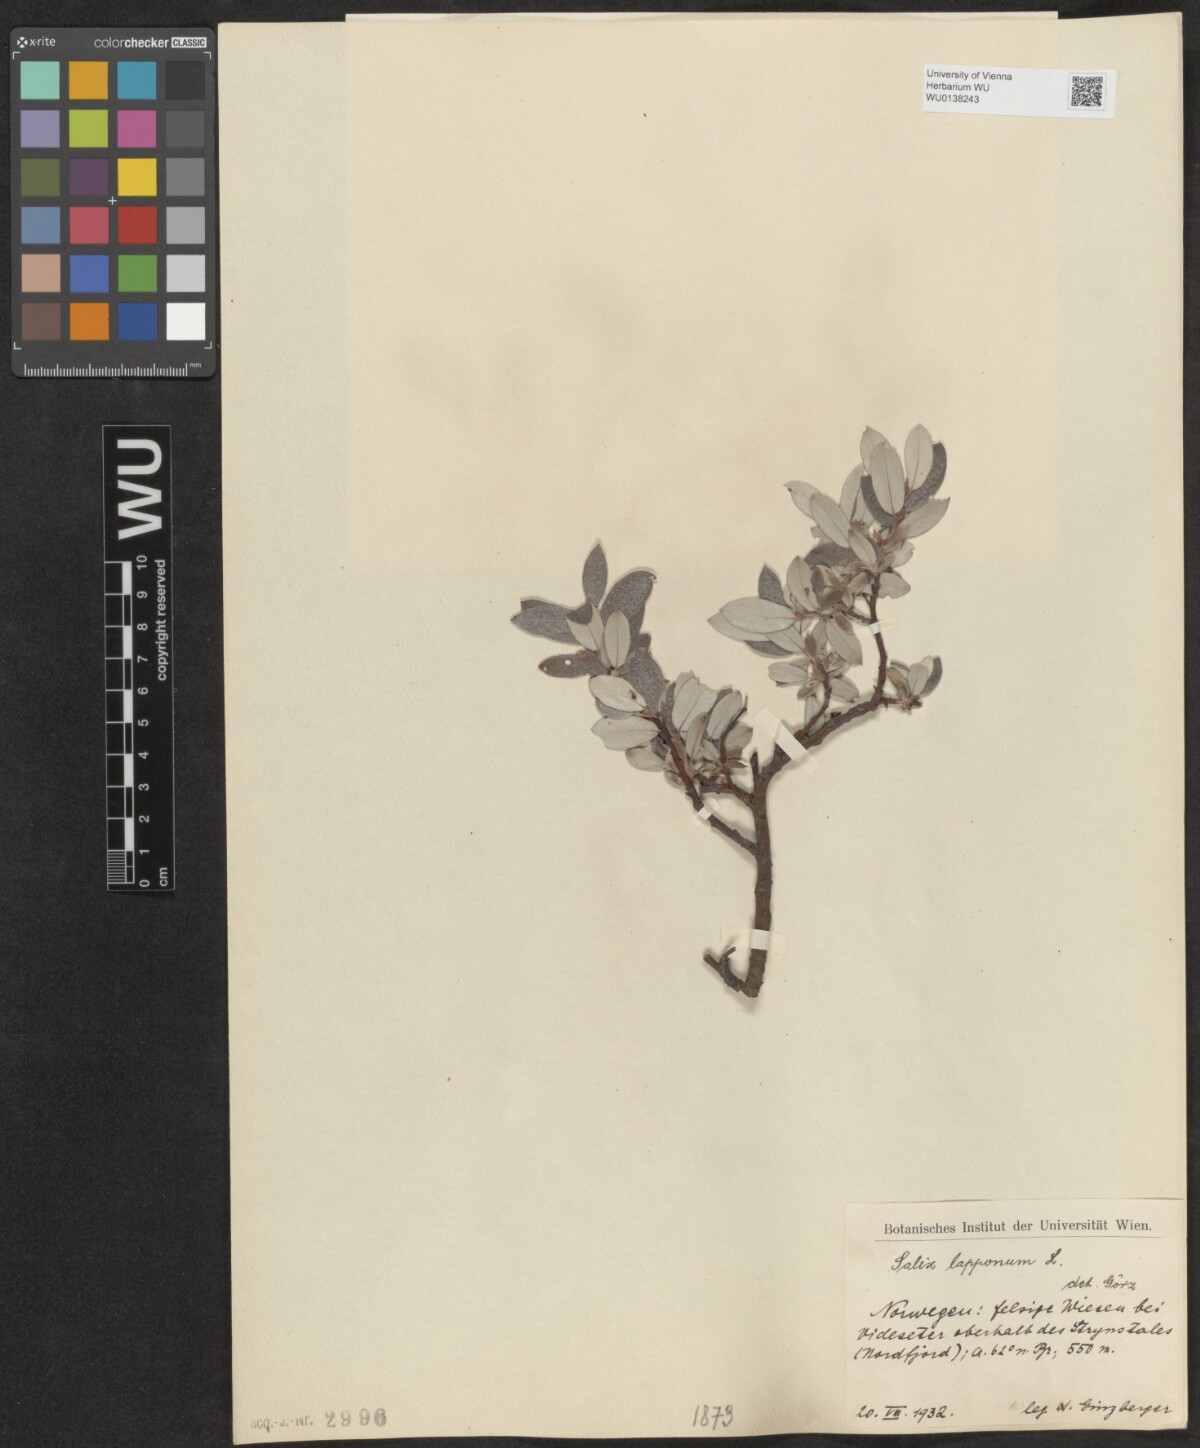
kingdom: Plantae
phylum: Tracheophyta
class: Magnoliopsida
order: Malpighiales
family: Salicaceae
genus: Salix
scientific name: Salix lapponum
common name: Downy willow
